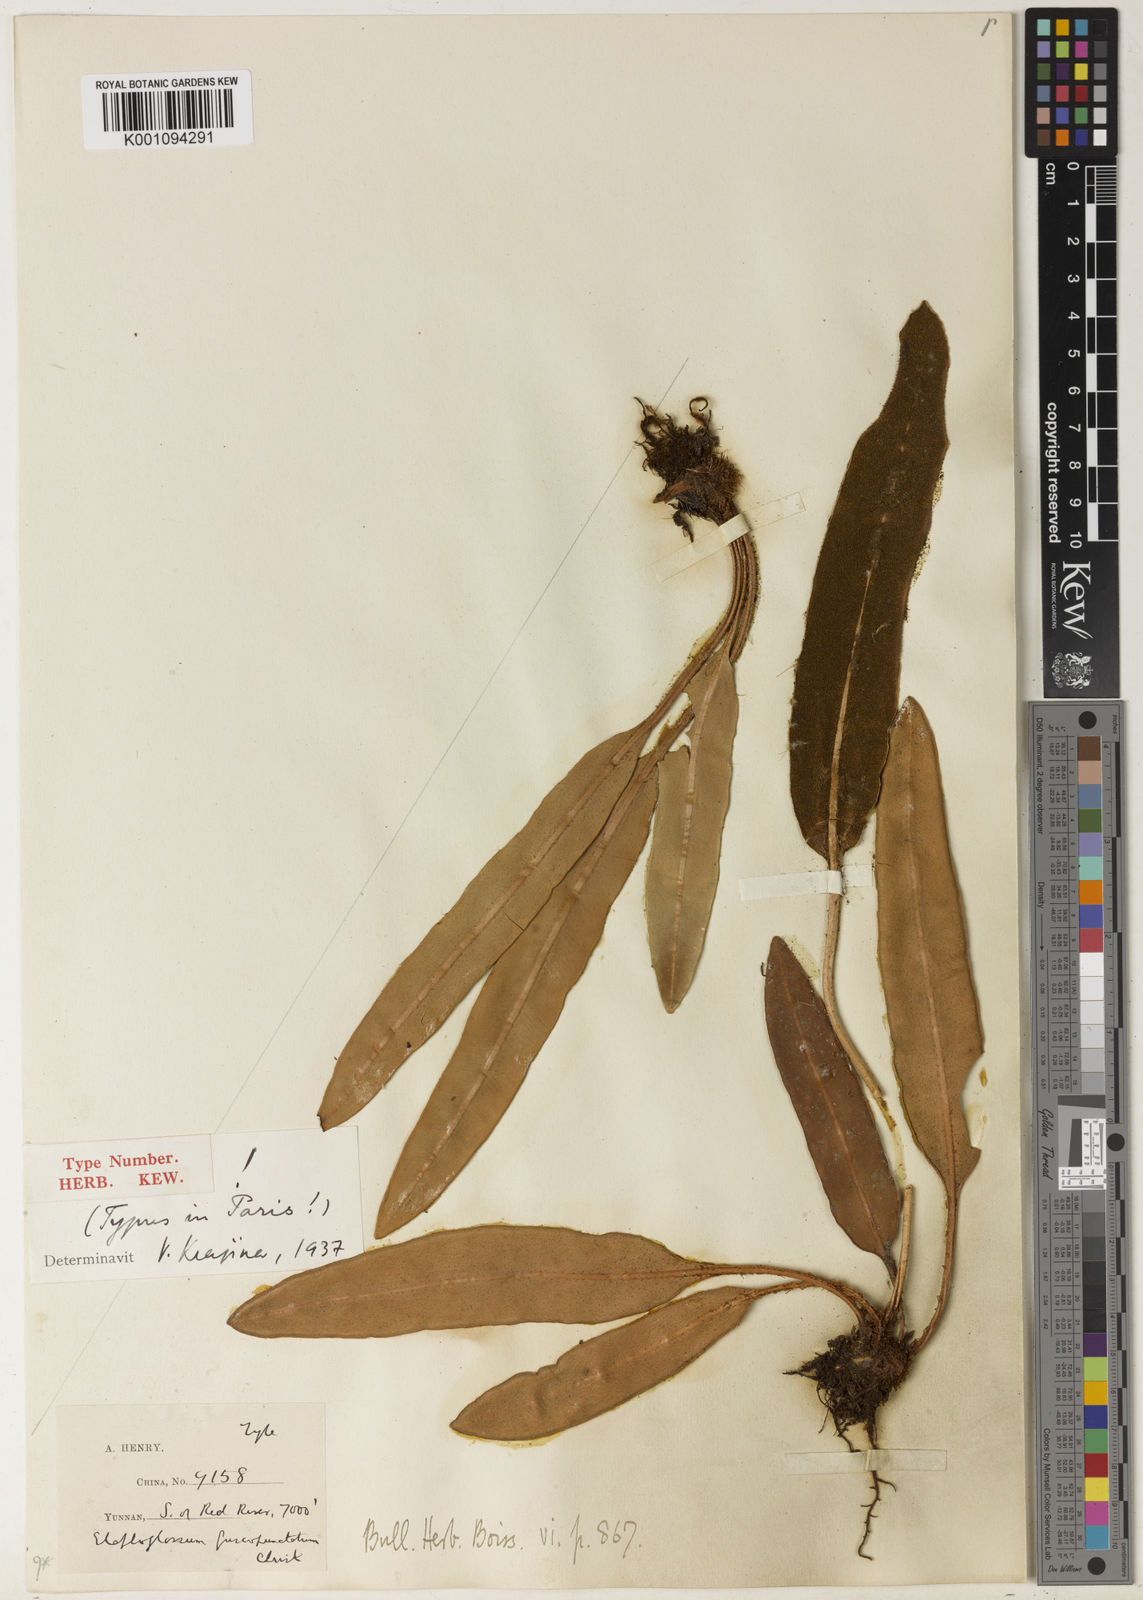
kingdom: Plantae
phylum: Tracheophyta
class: Polypodiopsida
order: Polypodiales
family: Dryopteridaceae
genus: Elaphoglossum
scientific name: Elaphoglossum commutatum
